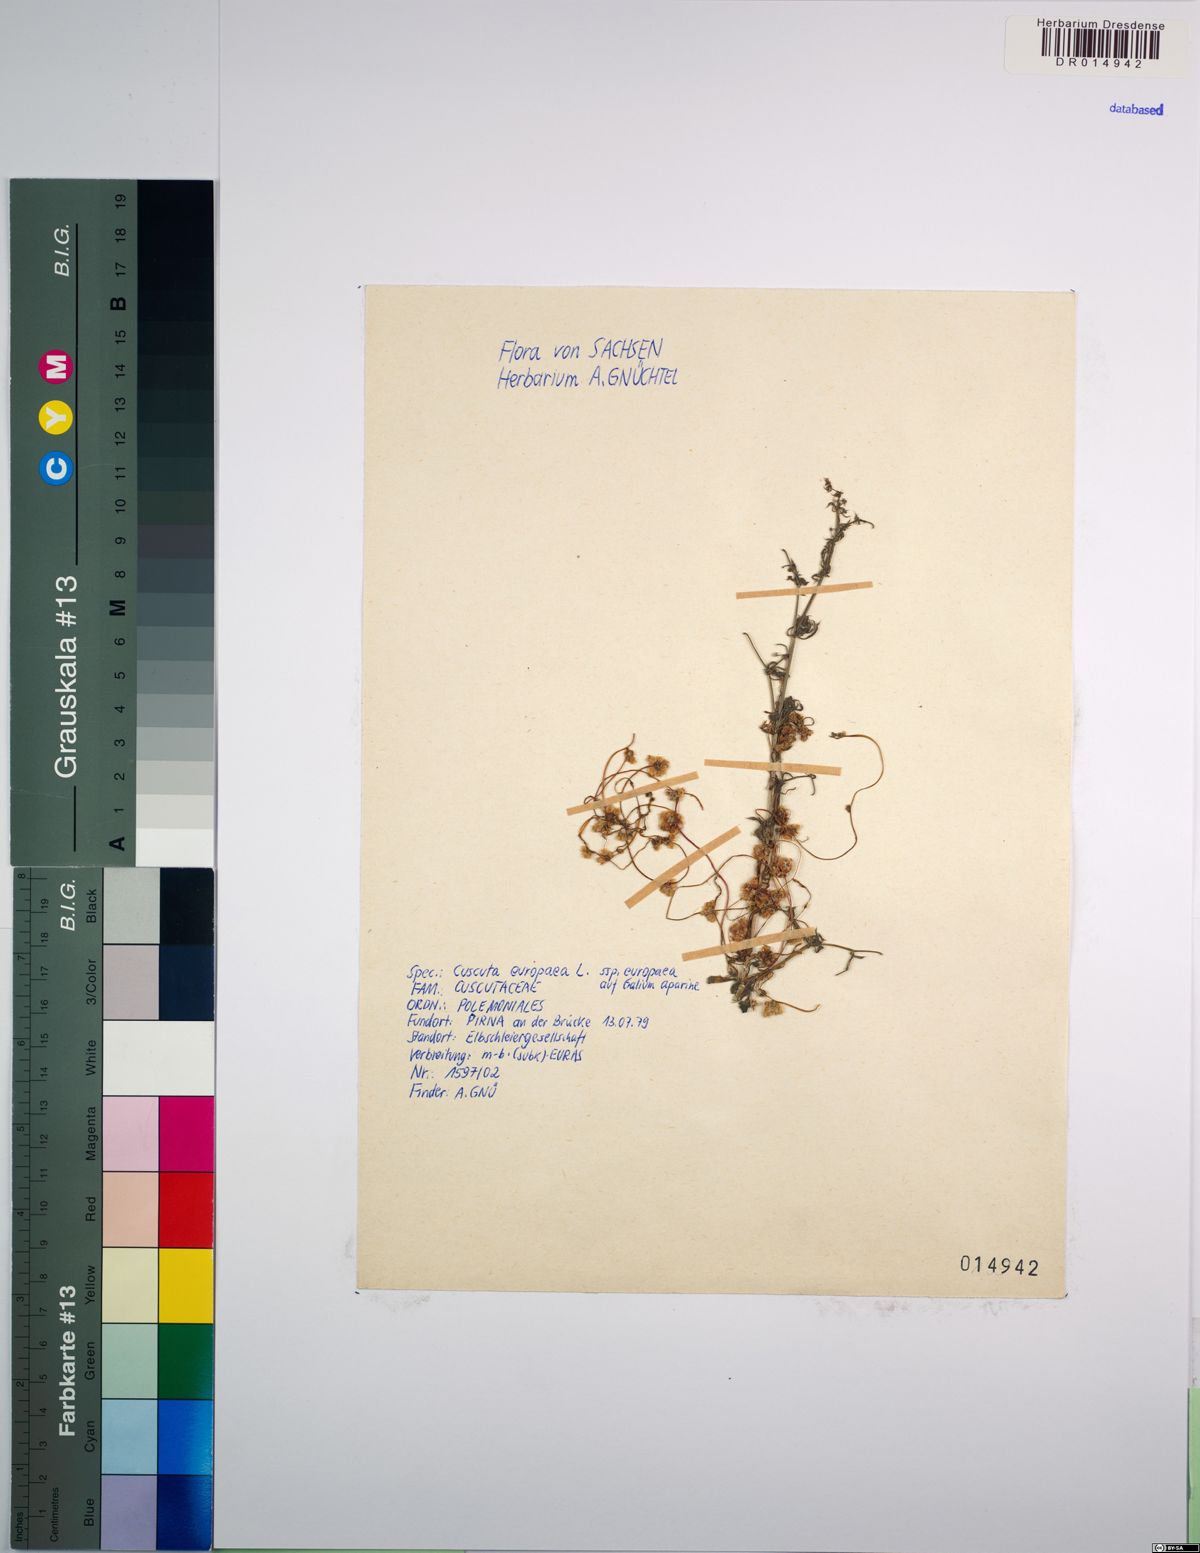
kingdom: Plantae
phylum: Tracheophyta
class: Magnoliopsida
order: Solanales
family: Convolvulaceae
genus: Cuscuta
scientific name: Cuscuta europaea
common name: Greater dodder
